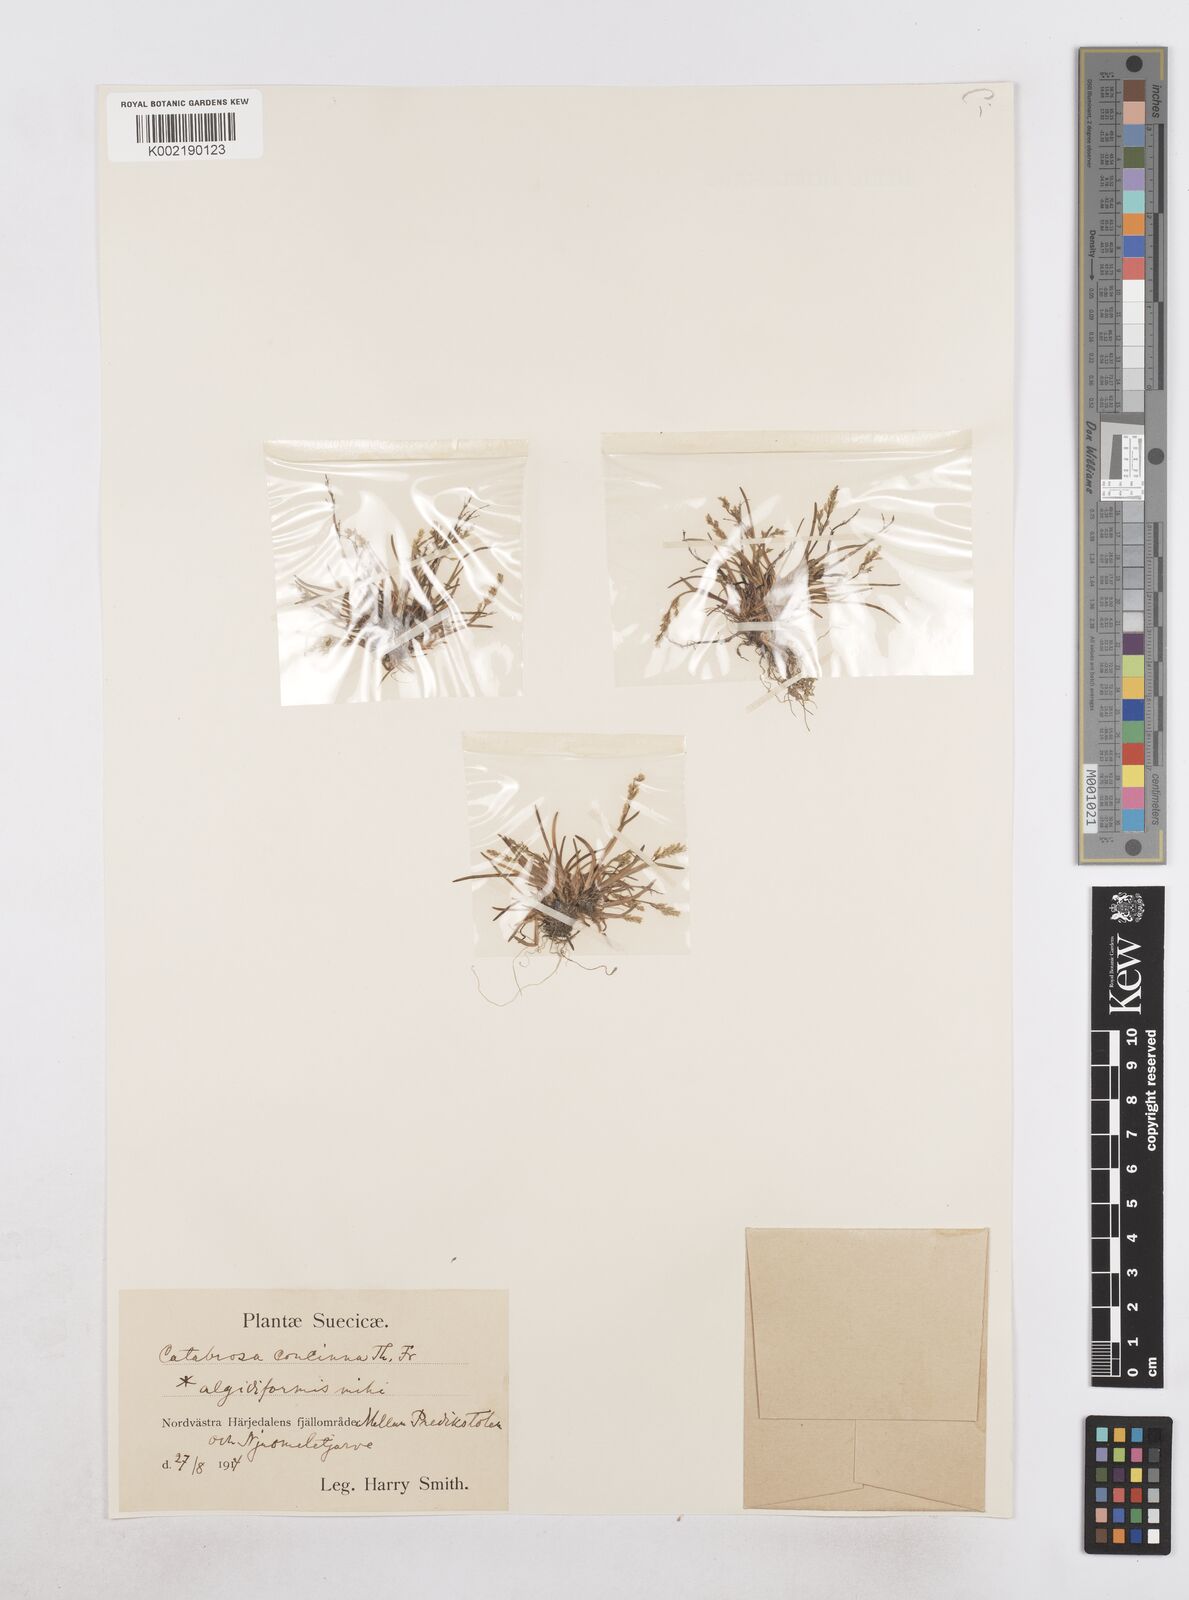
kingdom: Plantae
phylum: Tracheophyta
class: Liliopsida
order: Poales
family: Poaceae
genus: Phippsia
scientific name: Phippsia algida
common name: Ice grass
